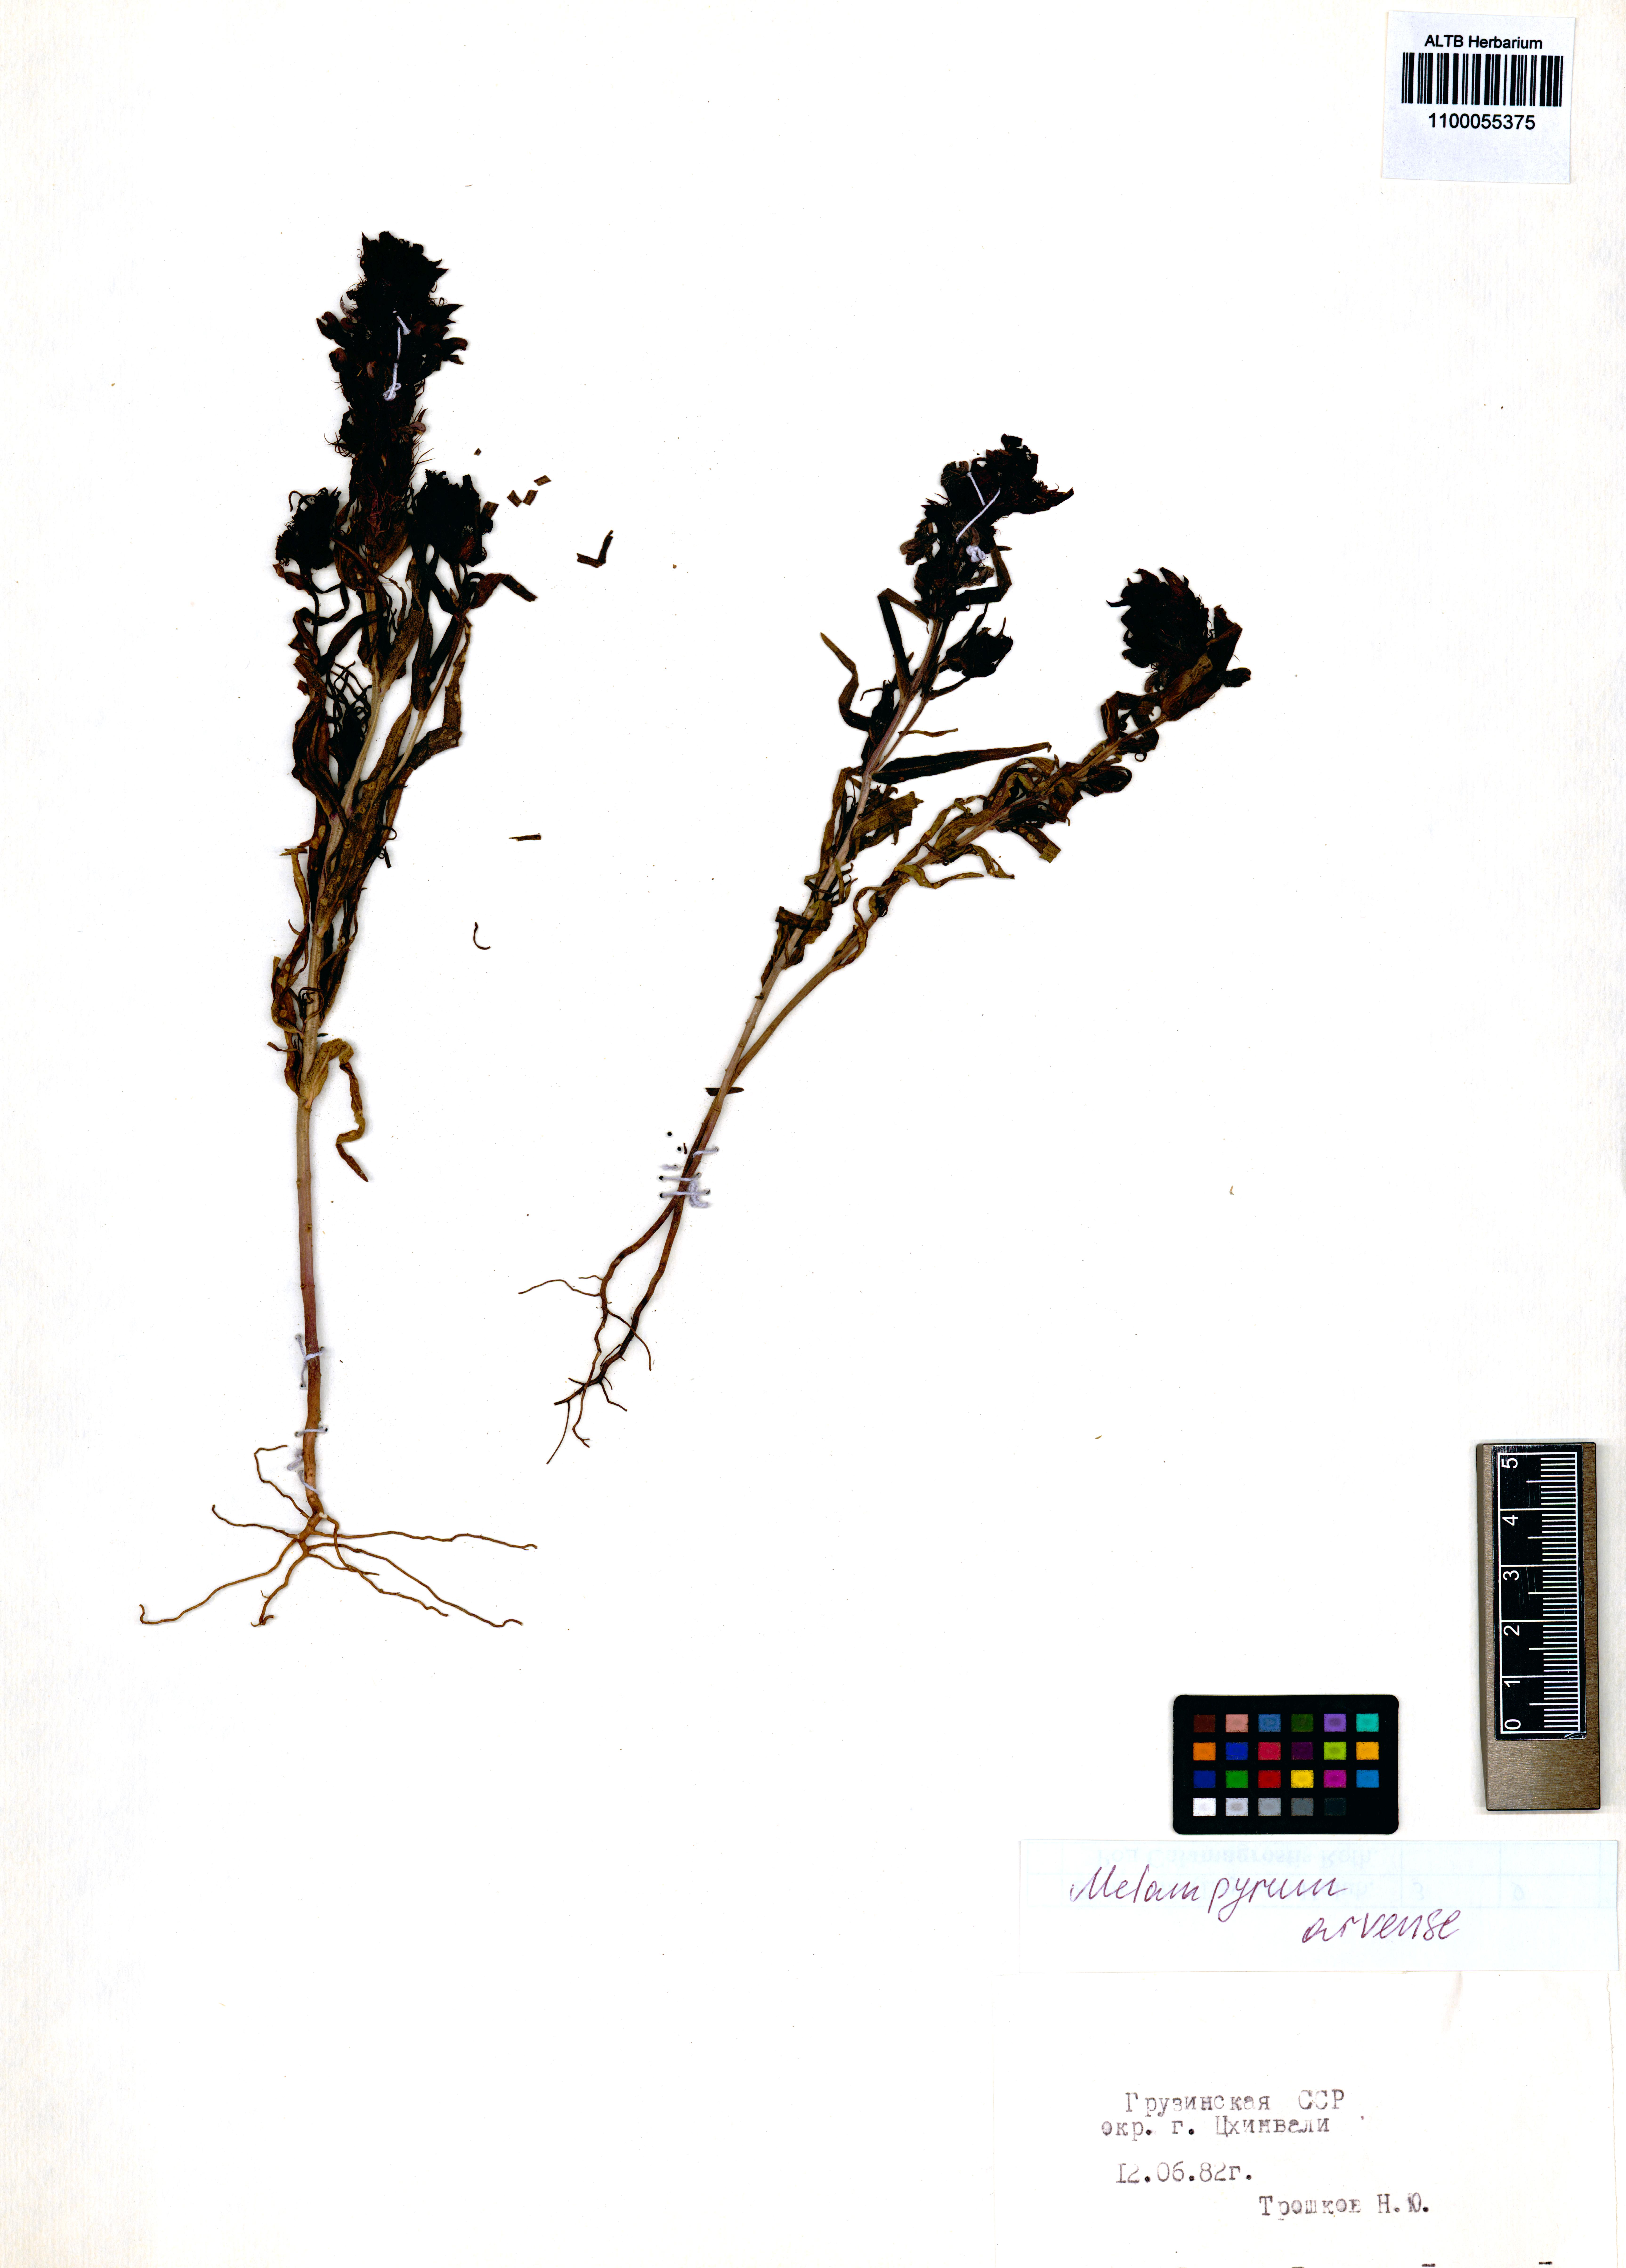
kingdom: Plantae
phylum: Tracheophyta
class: Magnoliopsida
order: Lamiales
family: Orobanchaceae
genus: Melampyrum
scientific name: Melampyrum arvense
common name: Field cow-wheat
